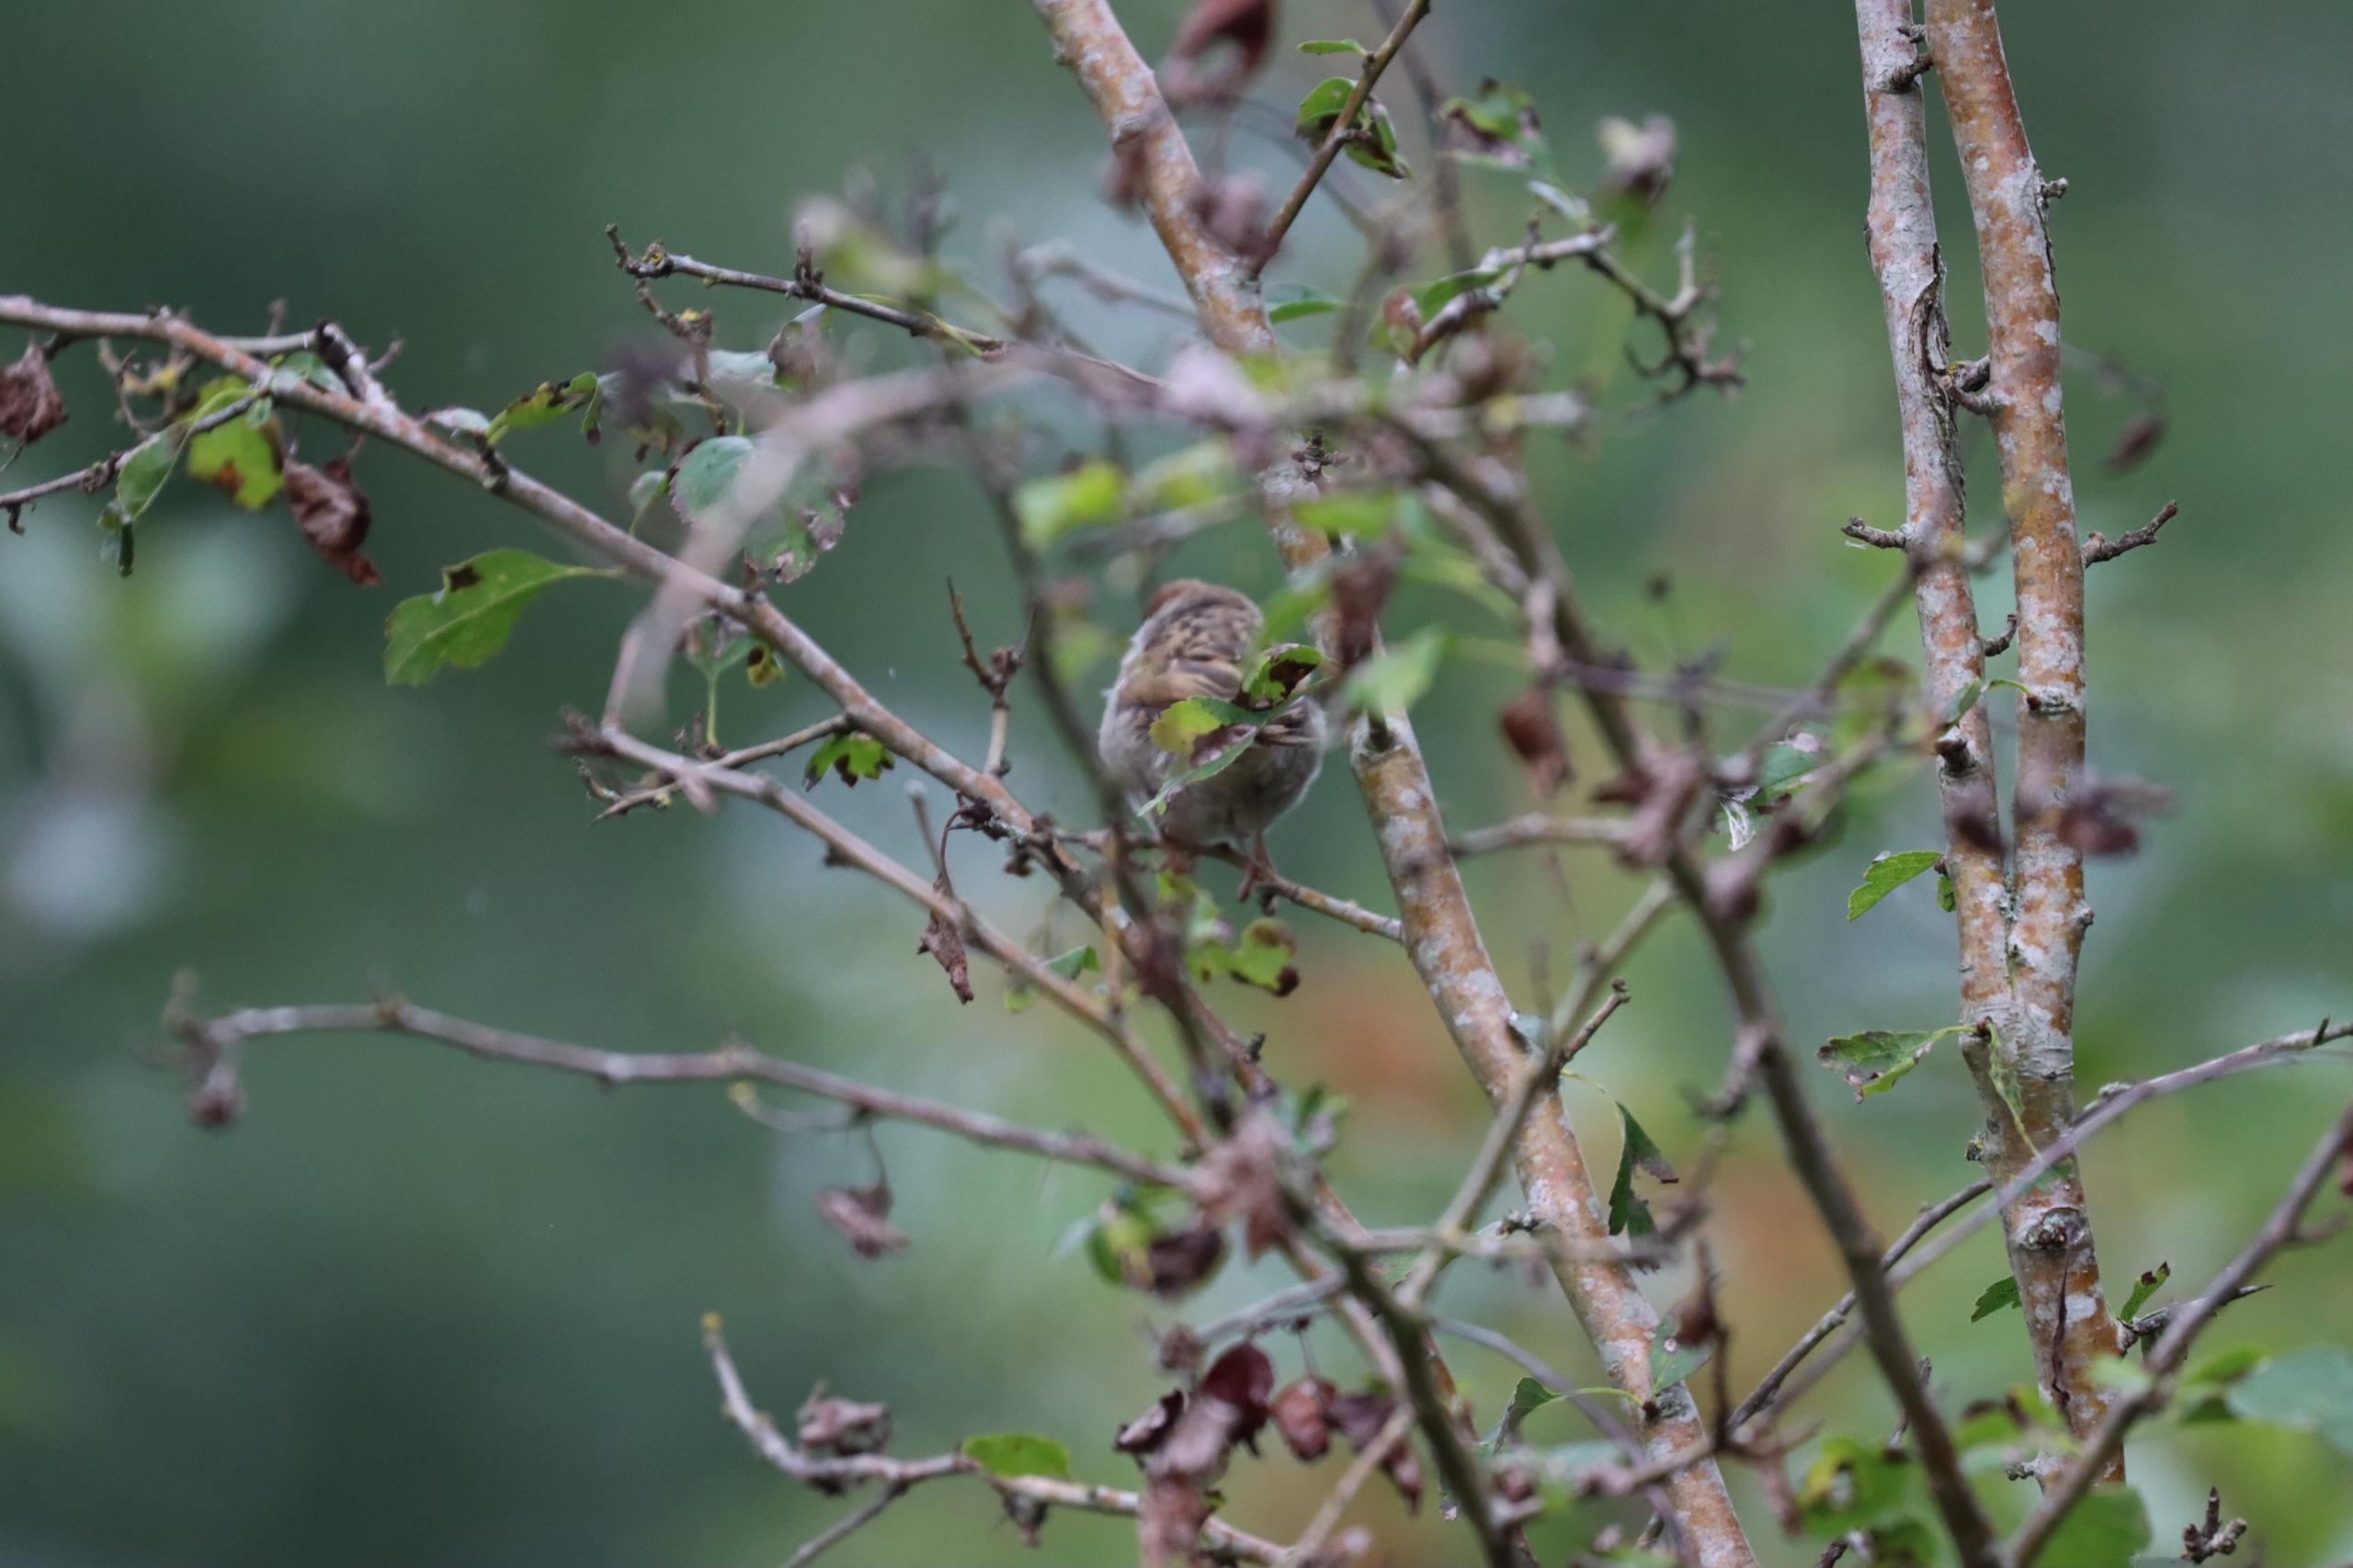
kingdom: Animalia
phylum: Chordata
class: Aves
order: Passeriformes
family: Passeridae
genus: Passer
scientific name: Passer montanus
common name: Skovspurv
